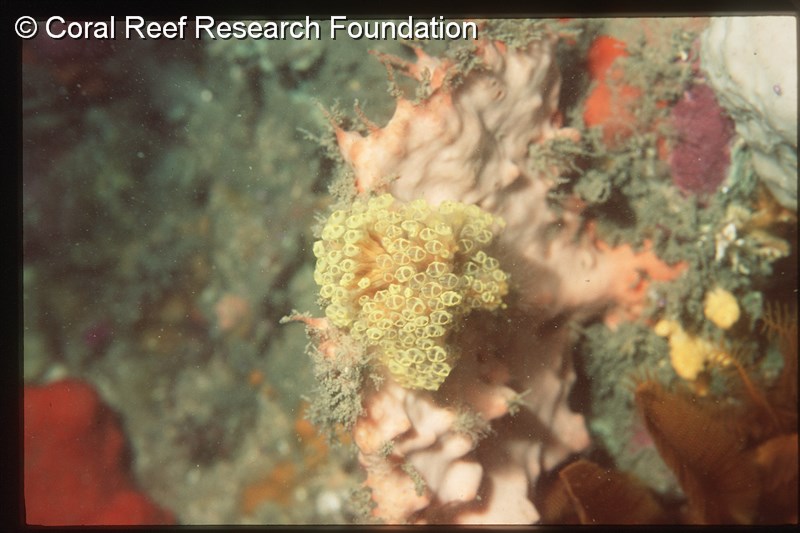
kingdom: Animalia
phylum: Chordata
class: Ascidiacea
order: Aplousobranchia
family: Clavelinidae
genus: Pycnoclavella
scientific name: Pycnoclavella narcissus
